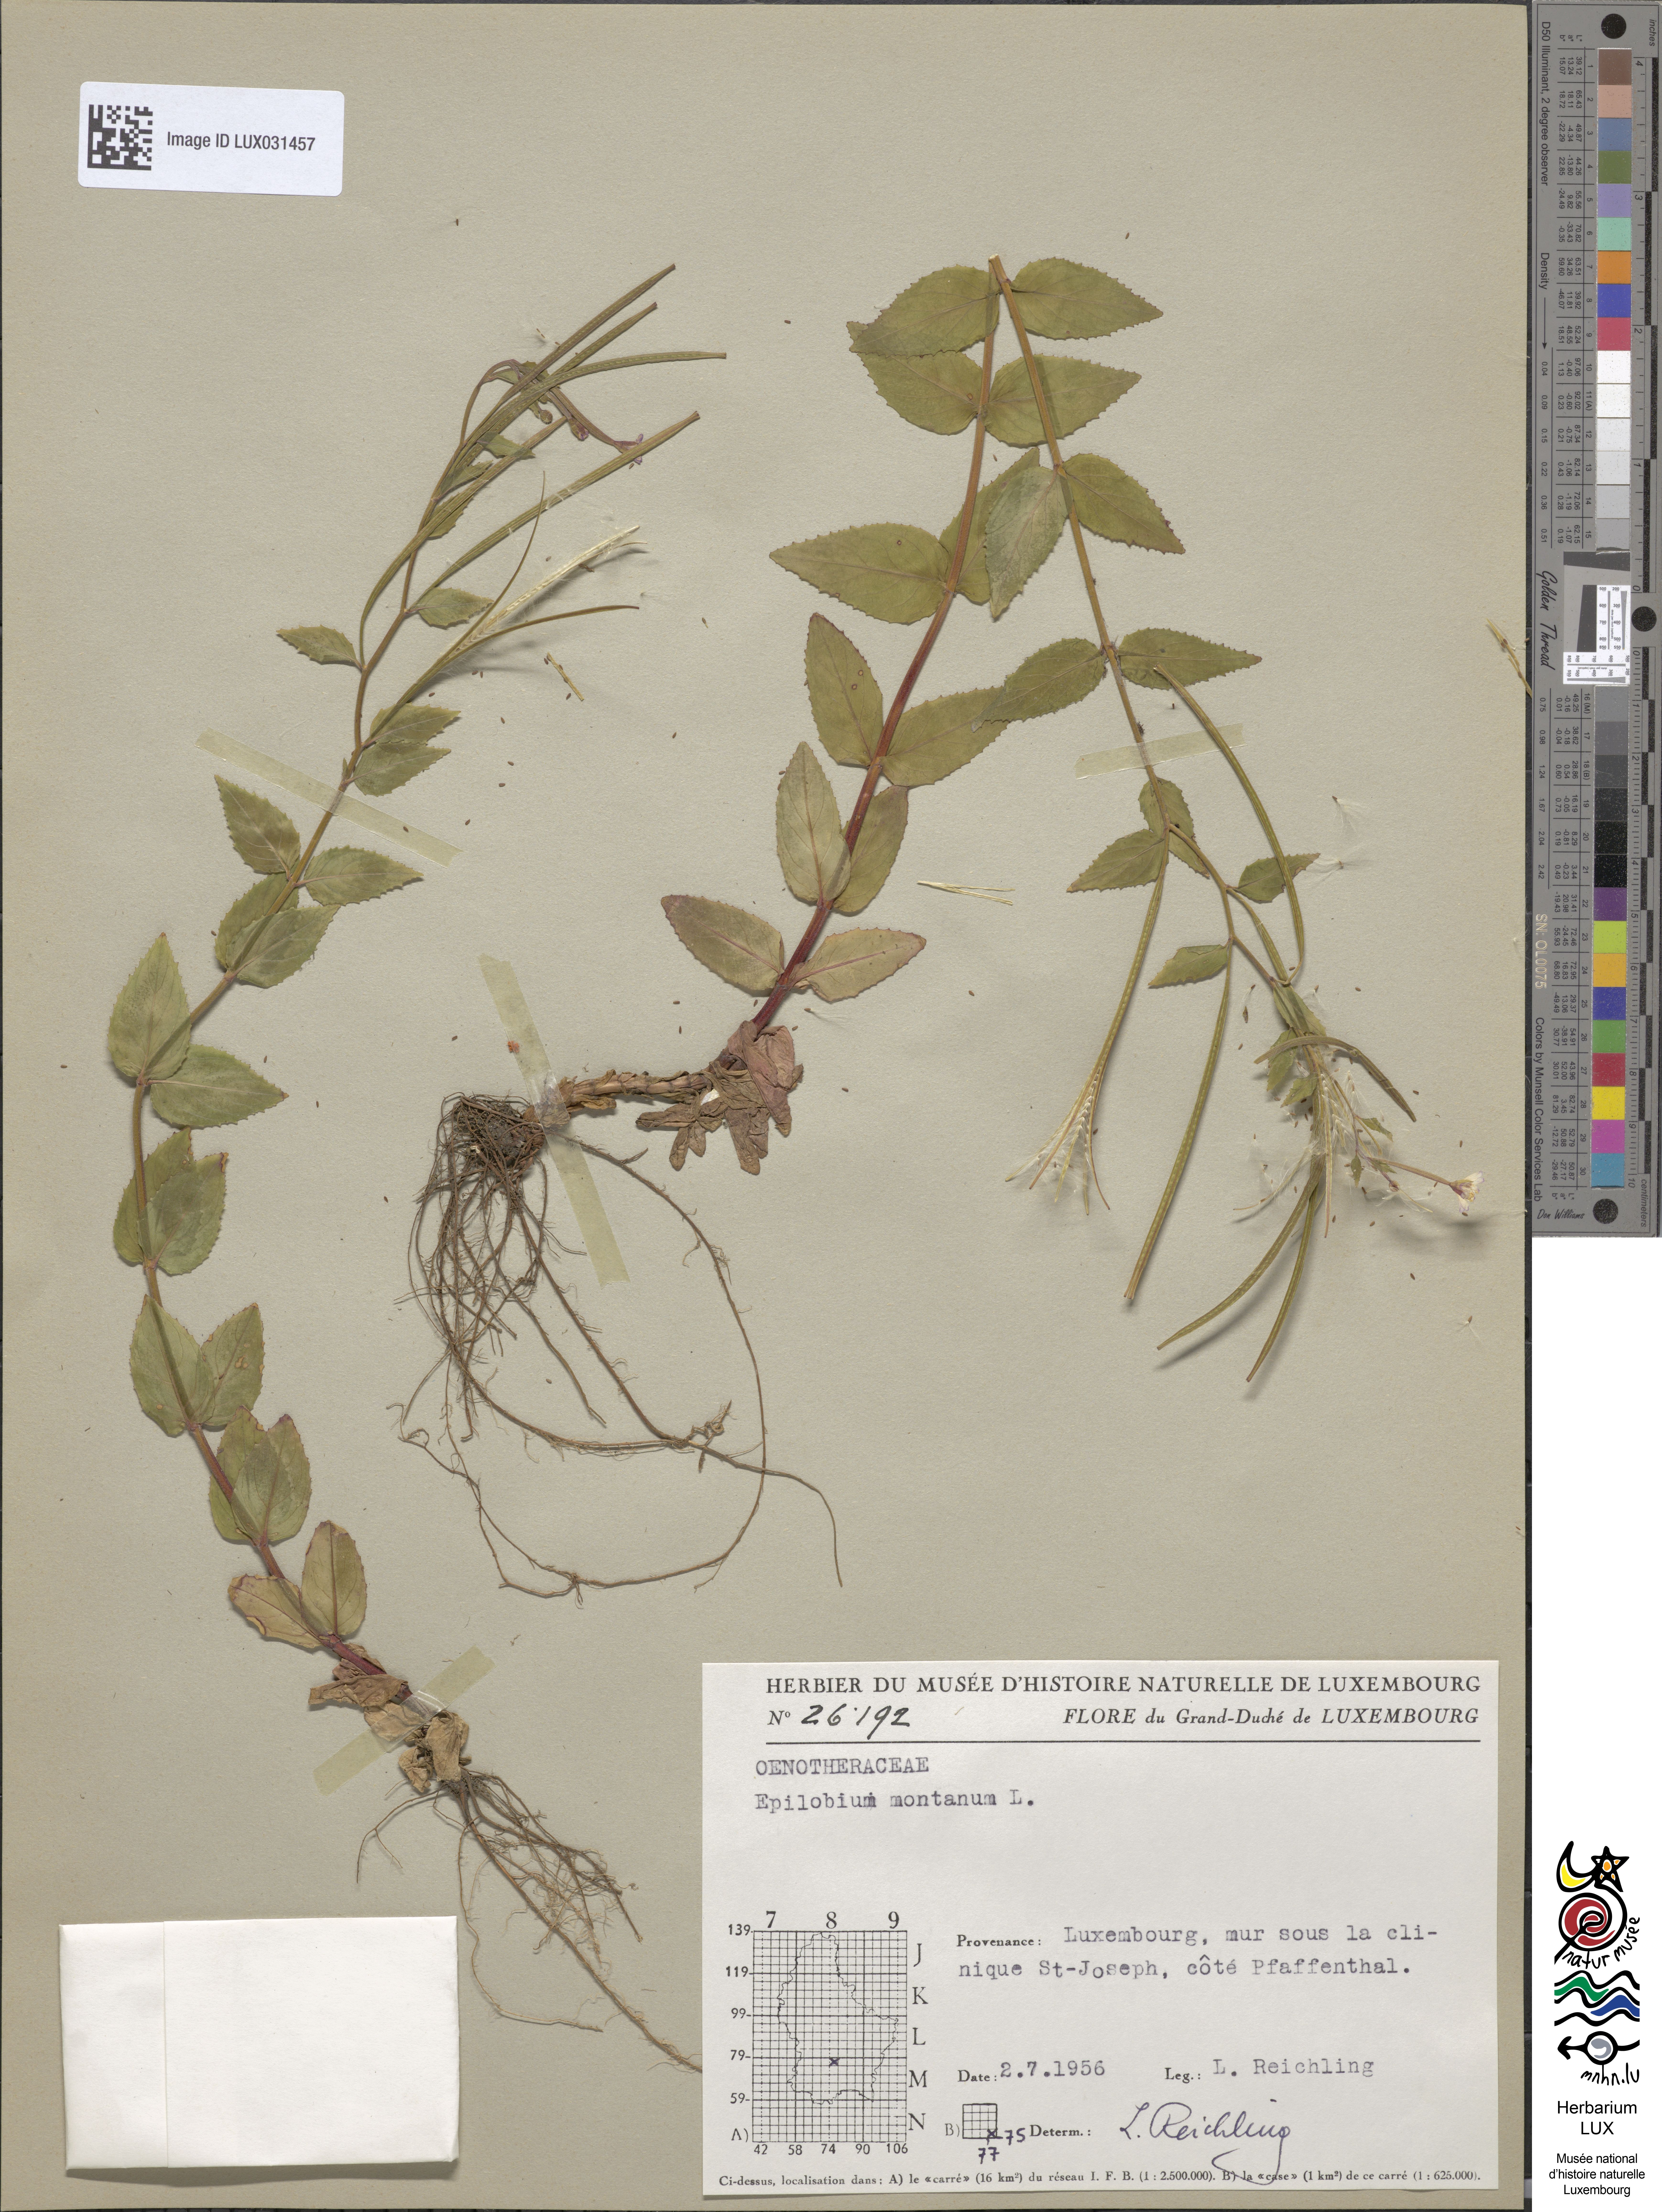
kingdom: Plantae
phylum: Tracheophyta
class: Magnoliopsida
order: Myrtales
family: Onagraceae
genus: Epilobium
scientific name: Epilobium montanum
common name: Broad-leaved willowherb
